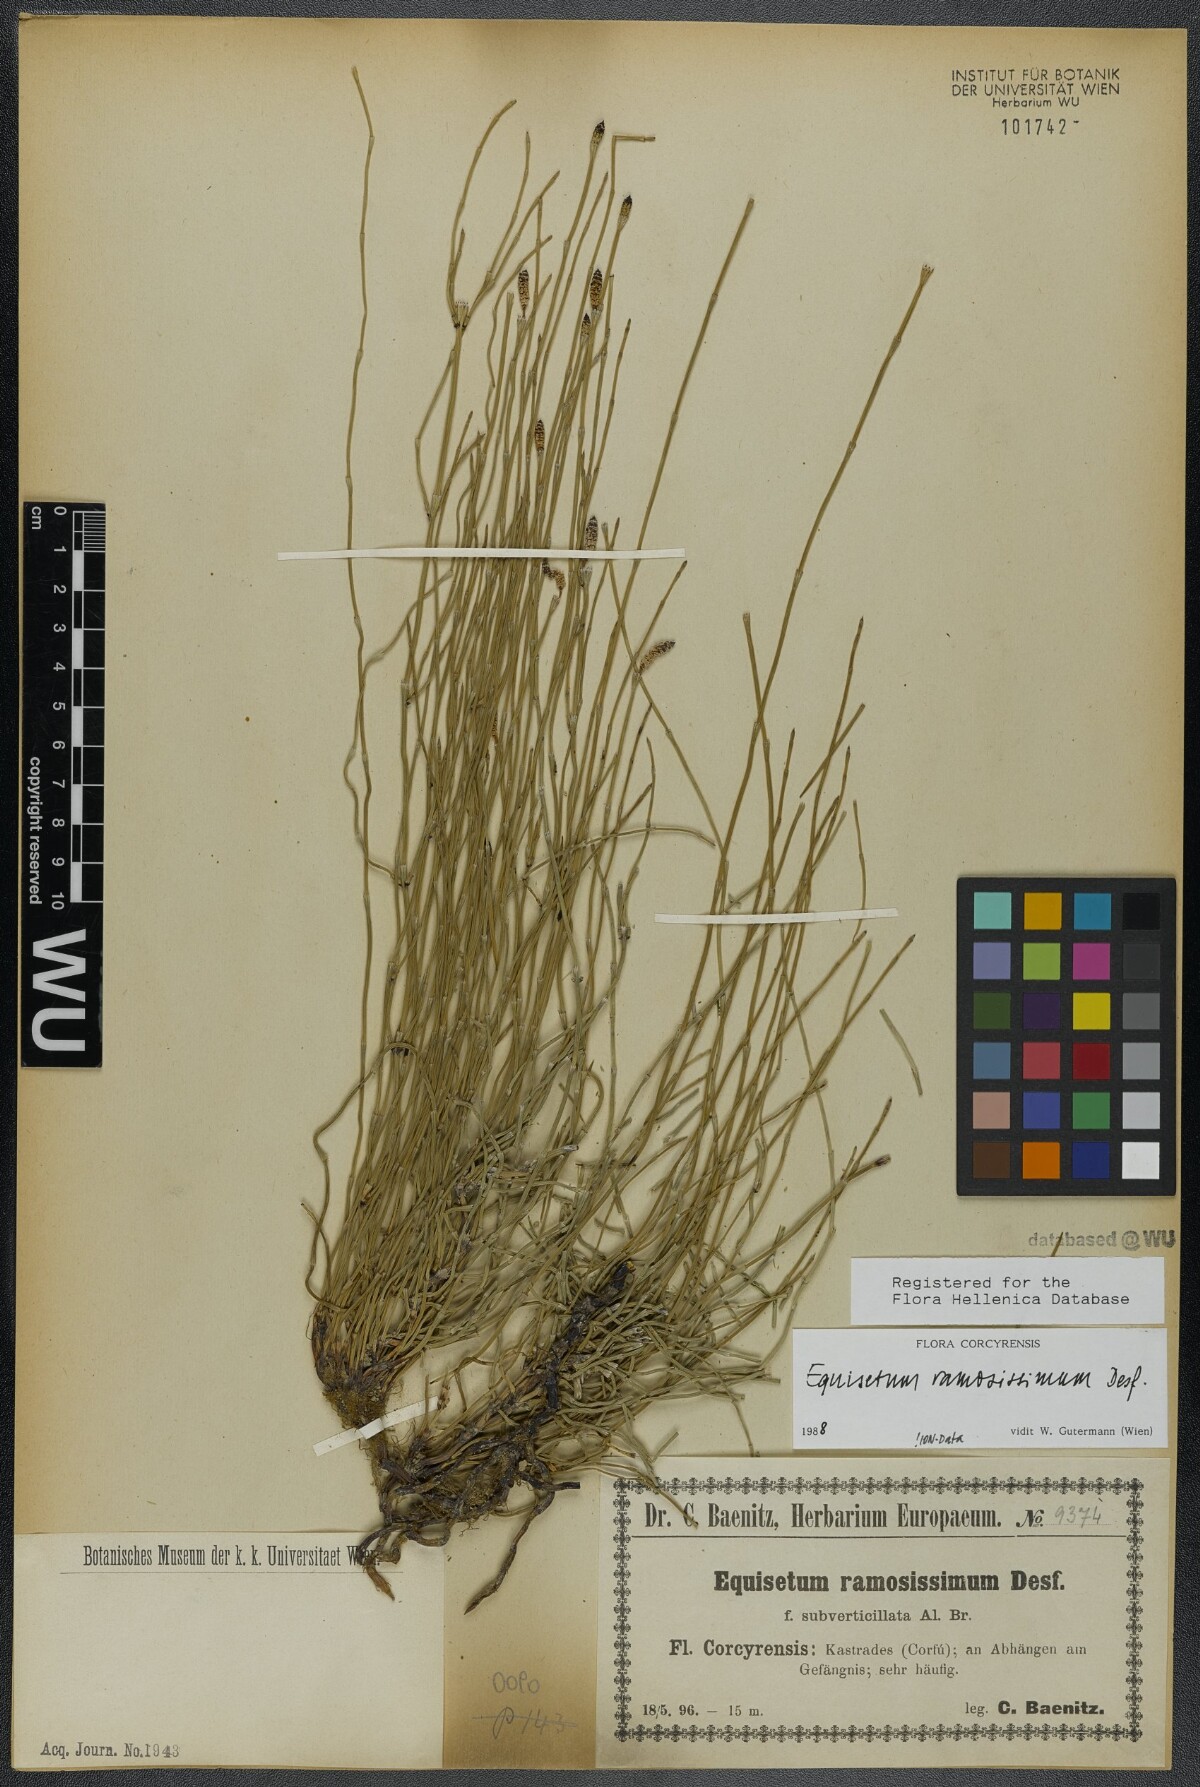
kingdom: Plantae
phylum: Tracheophyta
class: Polypodiopsida
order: Equisetales
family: Equisetaceae
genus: Equisetum
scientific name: Equisetum ramosissimum
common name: Branched horsetail
